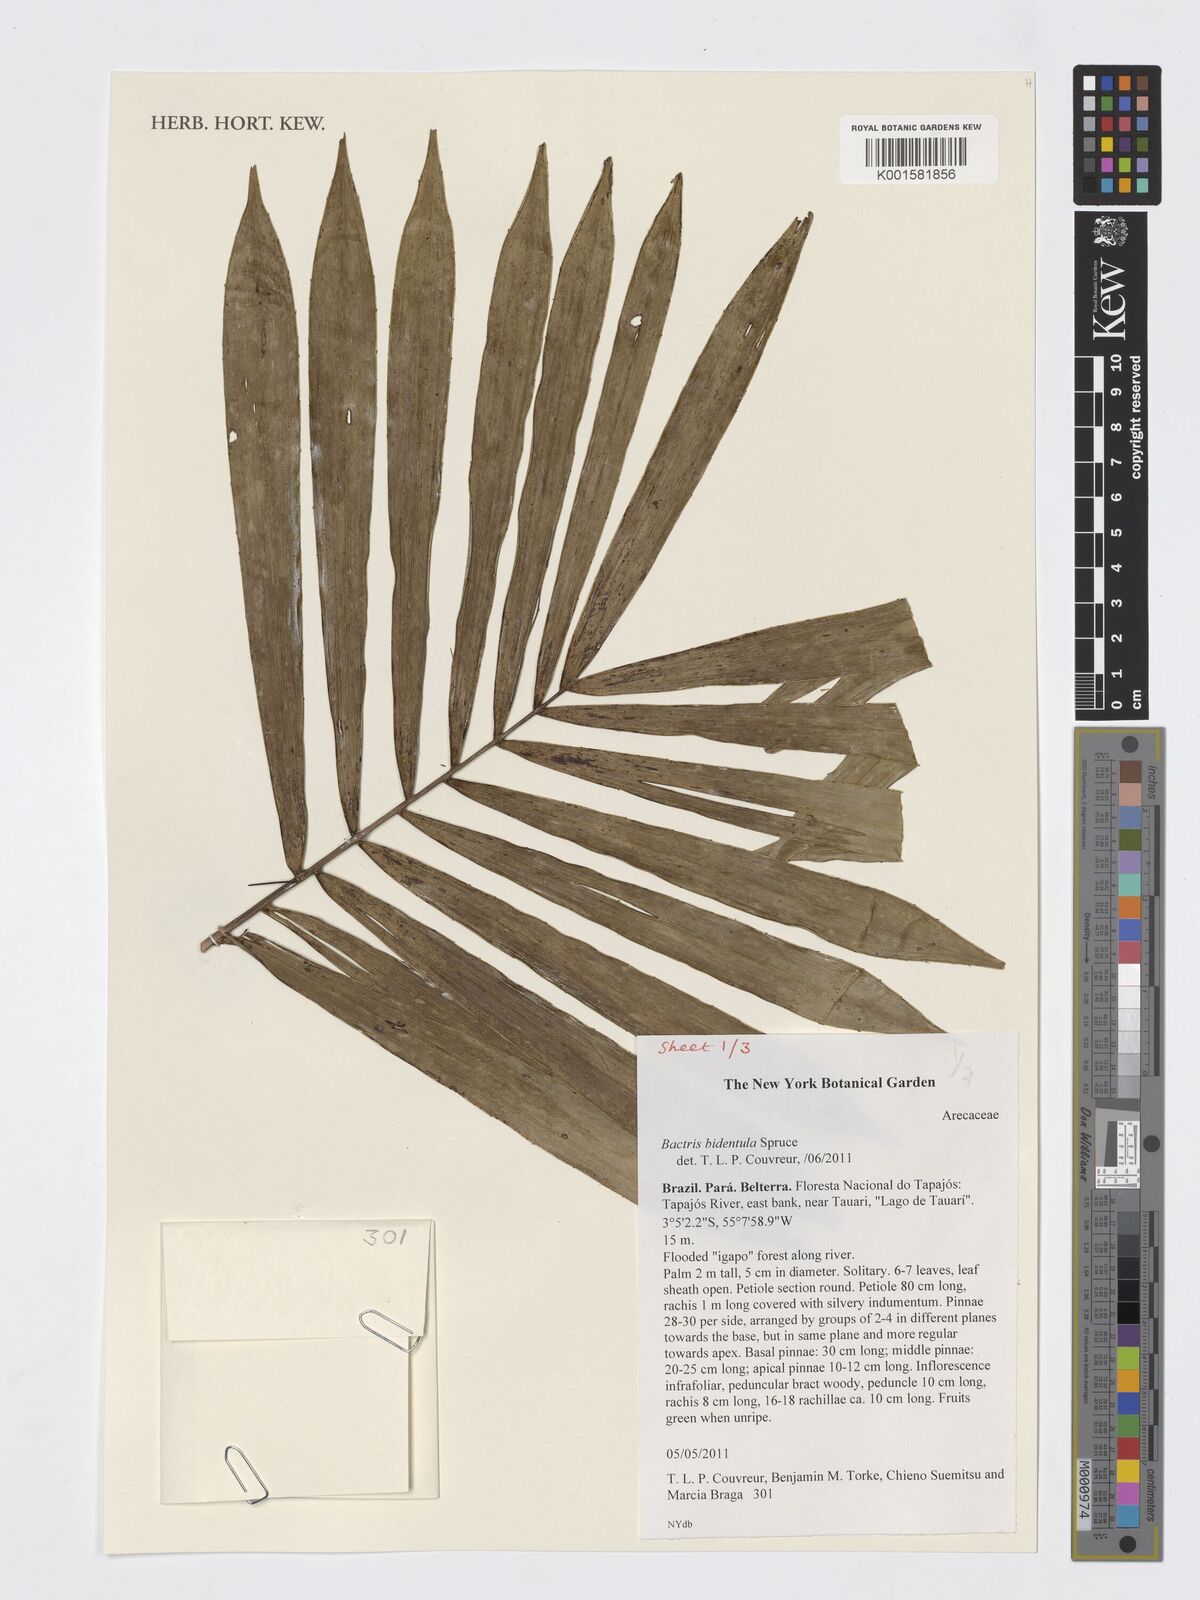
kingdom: Plantae
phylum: Tracheophyta
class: Liliopsida
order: Arecales
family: Arecaceae
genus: Bactris
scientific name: Bactris bidentula
